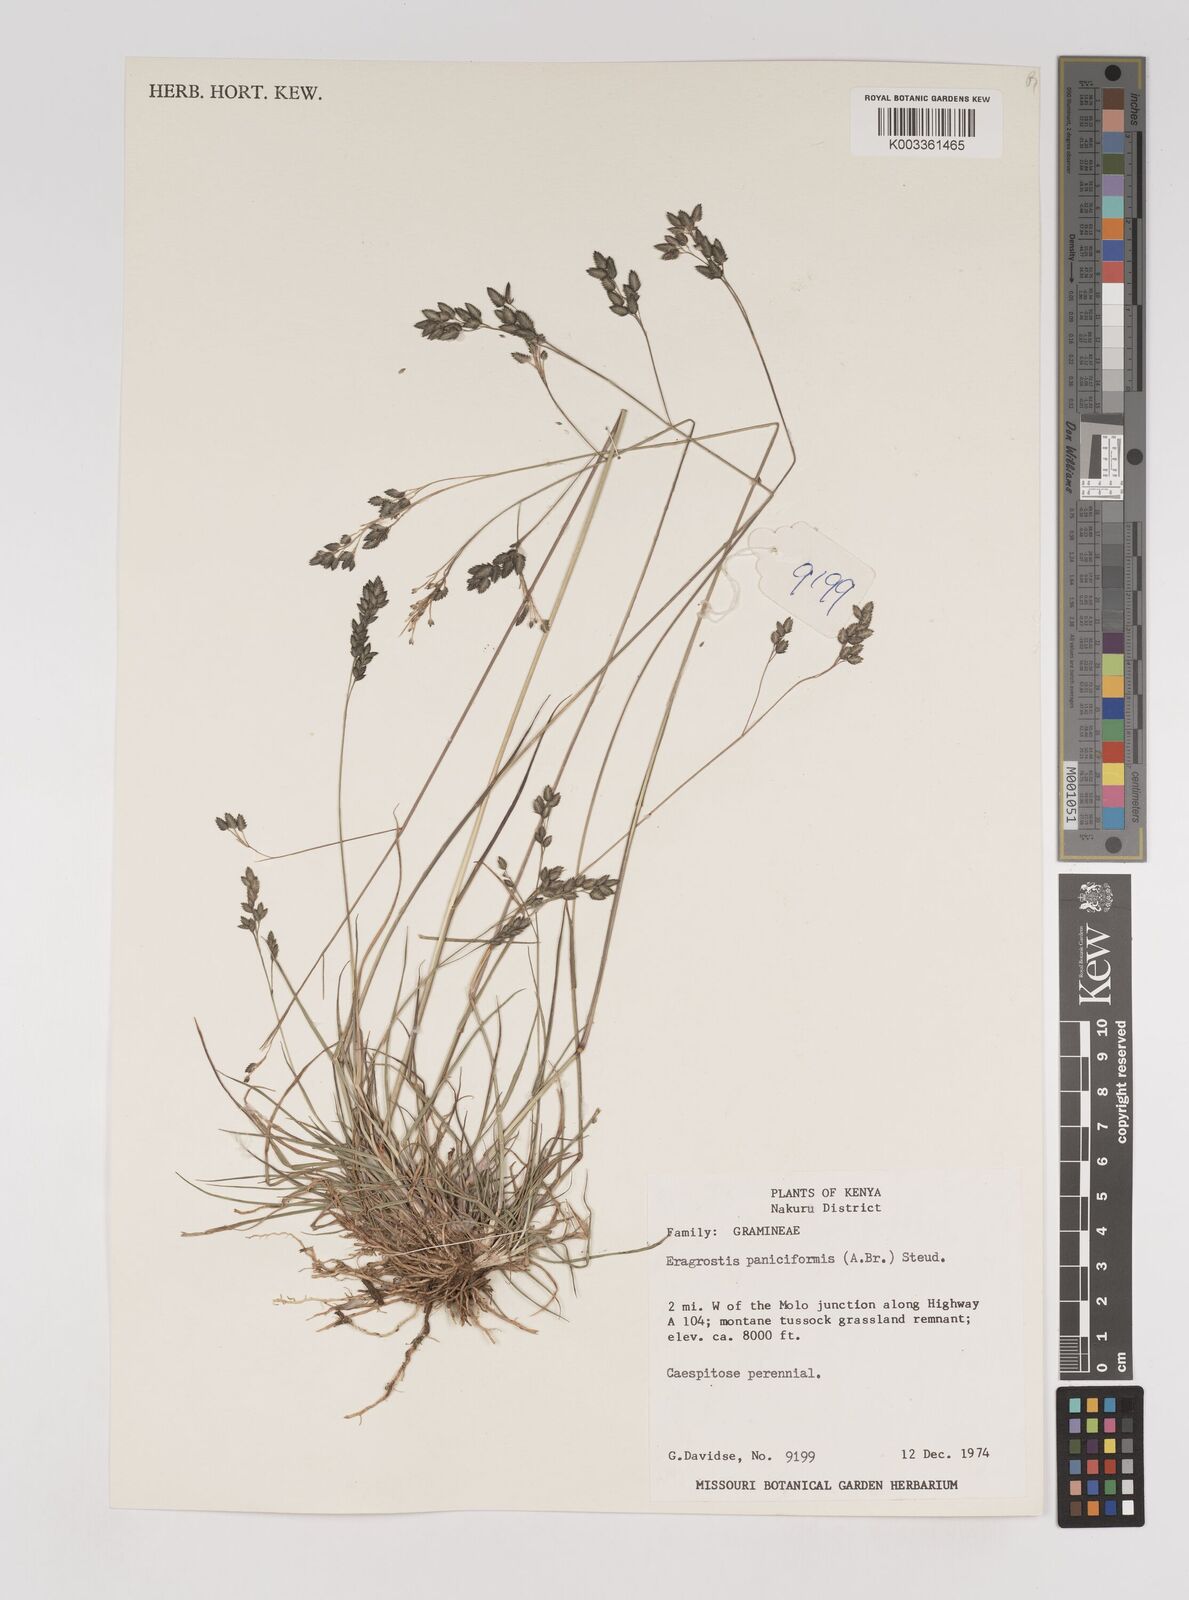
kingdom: Plantae
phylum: Tracheophyta
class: Liliopsida
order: Poales
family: Poaceae
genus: Eragrostis
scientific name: Eragrostis paniciformis
